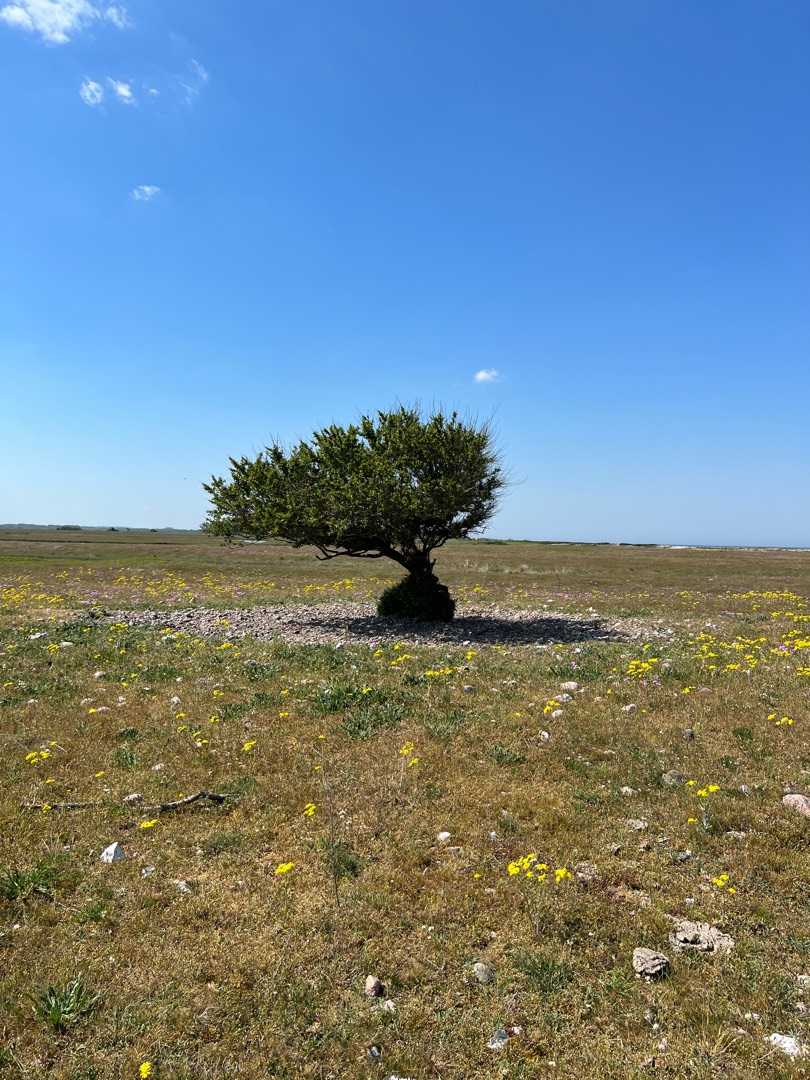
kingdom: Plantae
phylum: Tracheophyta
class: Magnoliopsida
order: Rosales
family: Rosaceae
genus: Prunus
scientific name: Prunus cerasifera
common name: Mirabel
